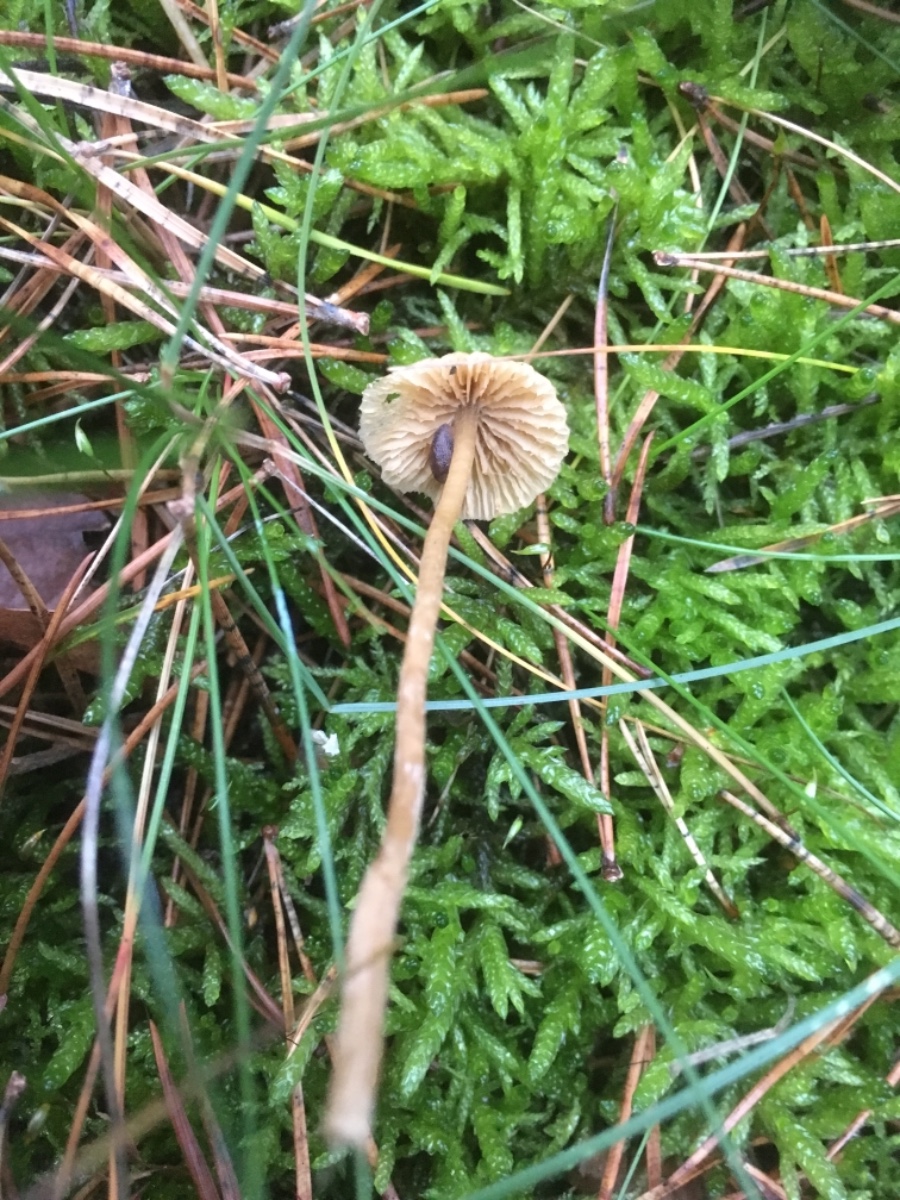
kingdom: Fungi
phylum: Basidiomycota
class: Agaricomycetes
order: Agaricales
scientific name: Agaricales
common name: champignonordenen
